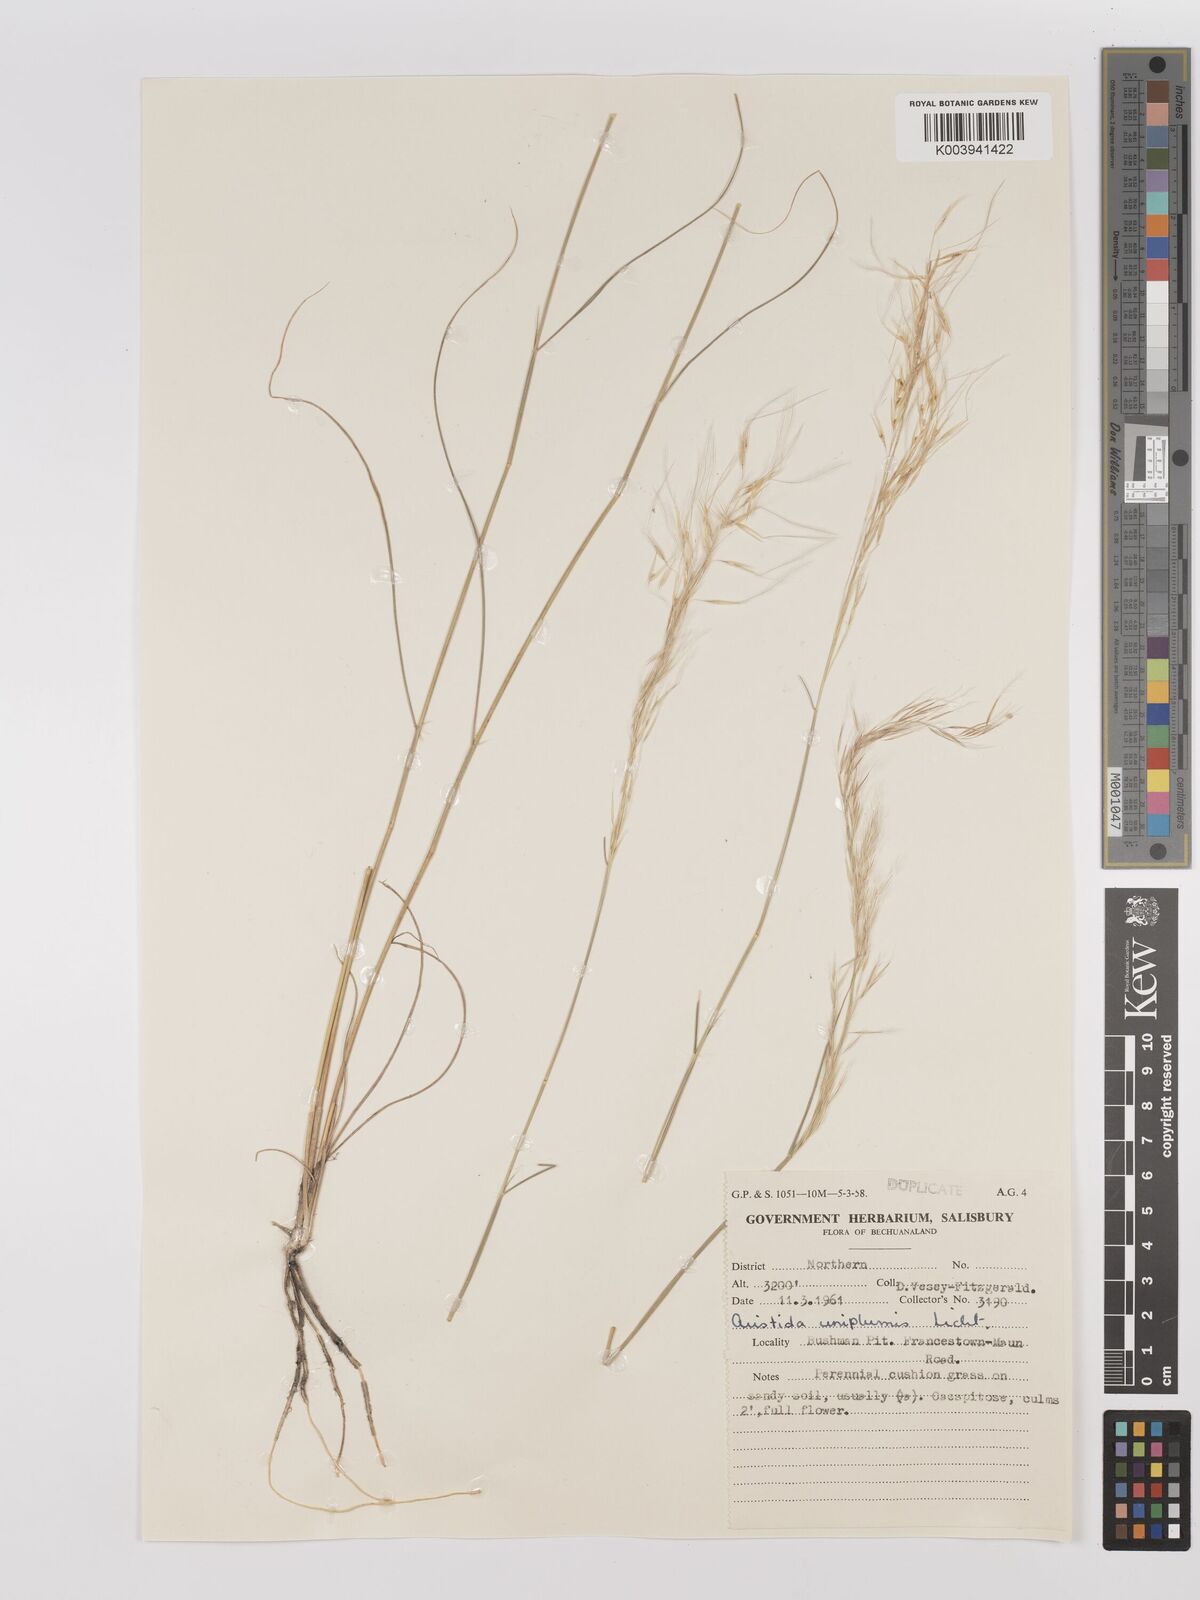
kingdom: Plantae
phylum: Tracheophyta
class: Liliopsida
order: Poales
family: Poaceae
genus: Stipagrostis
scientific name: Stipagrostis uniplumis
